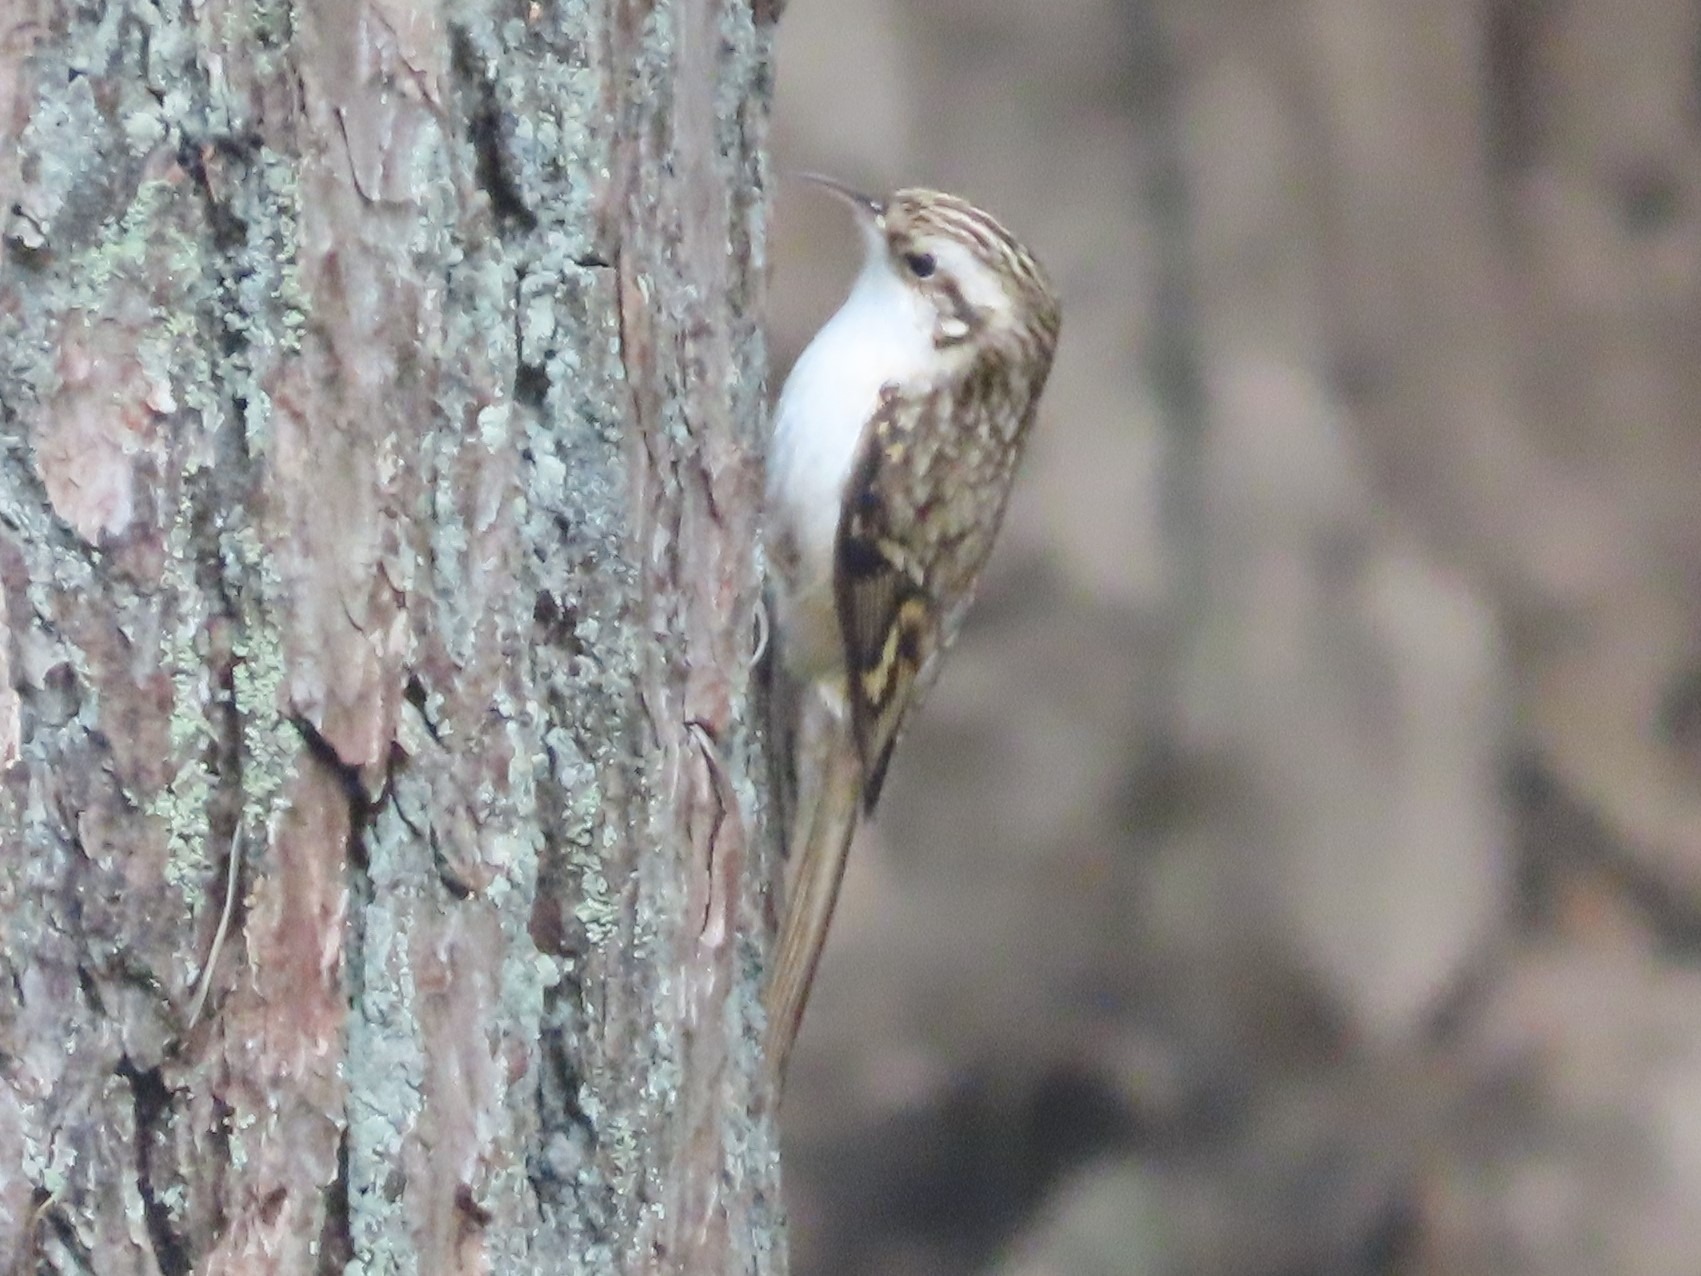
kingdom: Animalia
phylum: Chordata
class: Aves
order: Passeriformes
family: Certhiidae
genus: Certhia
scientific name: Certhia familiaris
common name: Træløber
